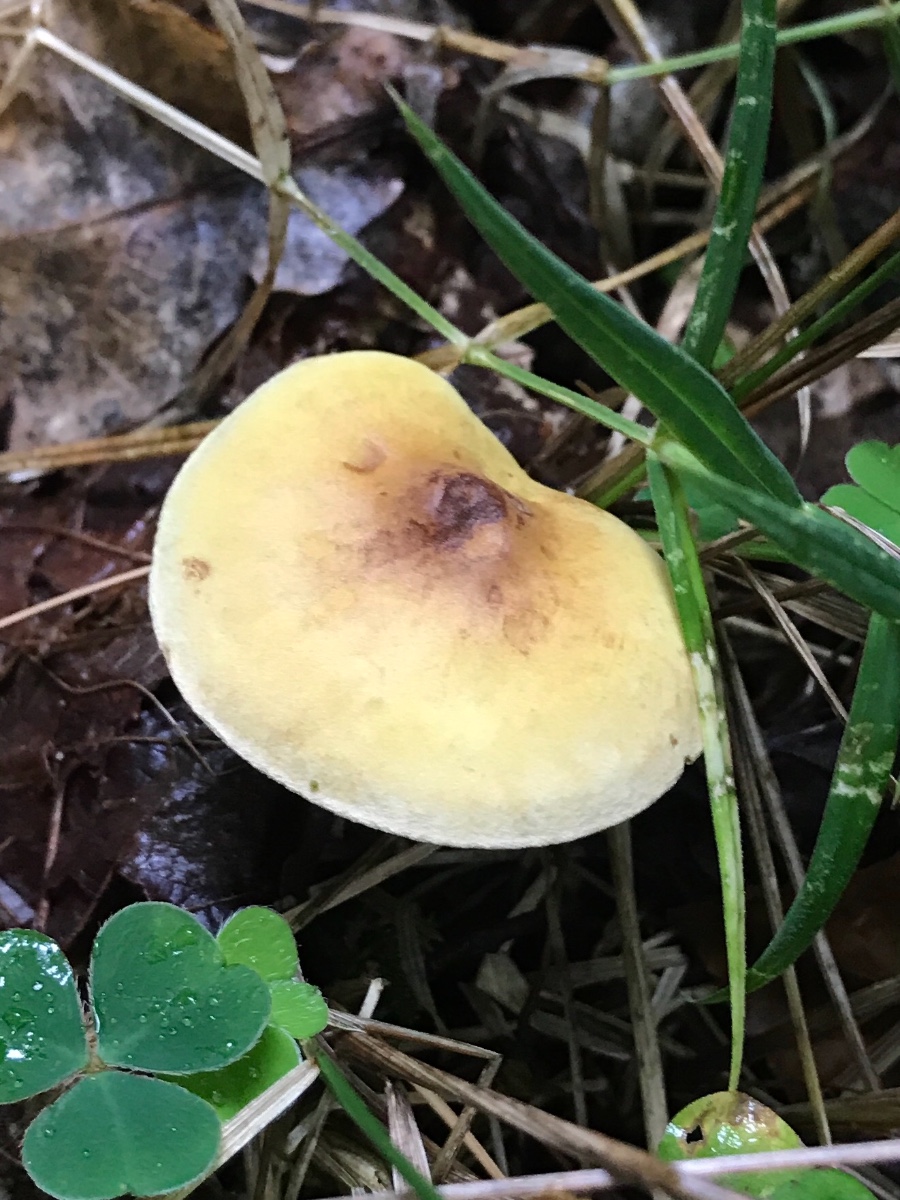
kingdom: Fungi
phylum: Basidiomycota
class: Agaricomycetes
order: Agaricales
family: Tricholomataceae
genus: Tricholoma
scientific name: Tricholoma sulphureum
